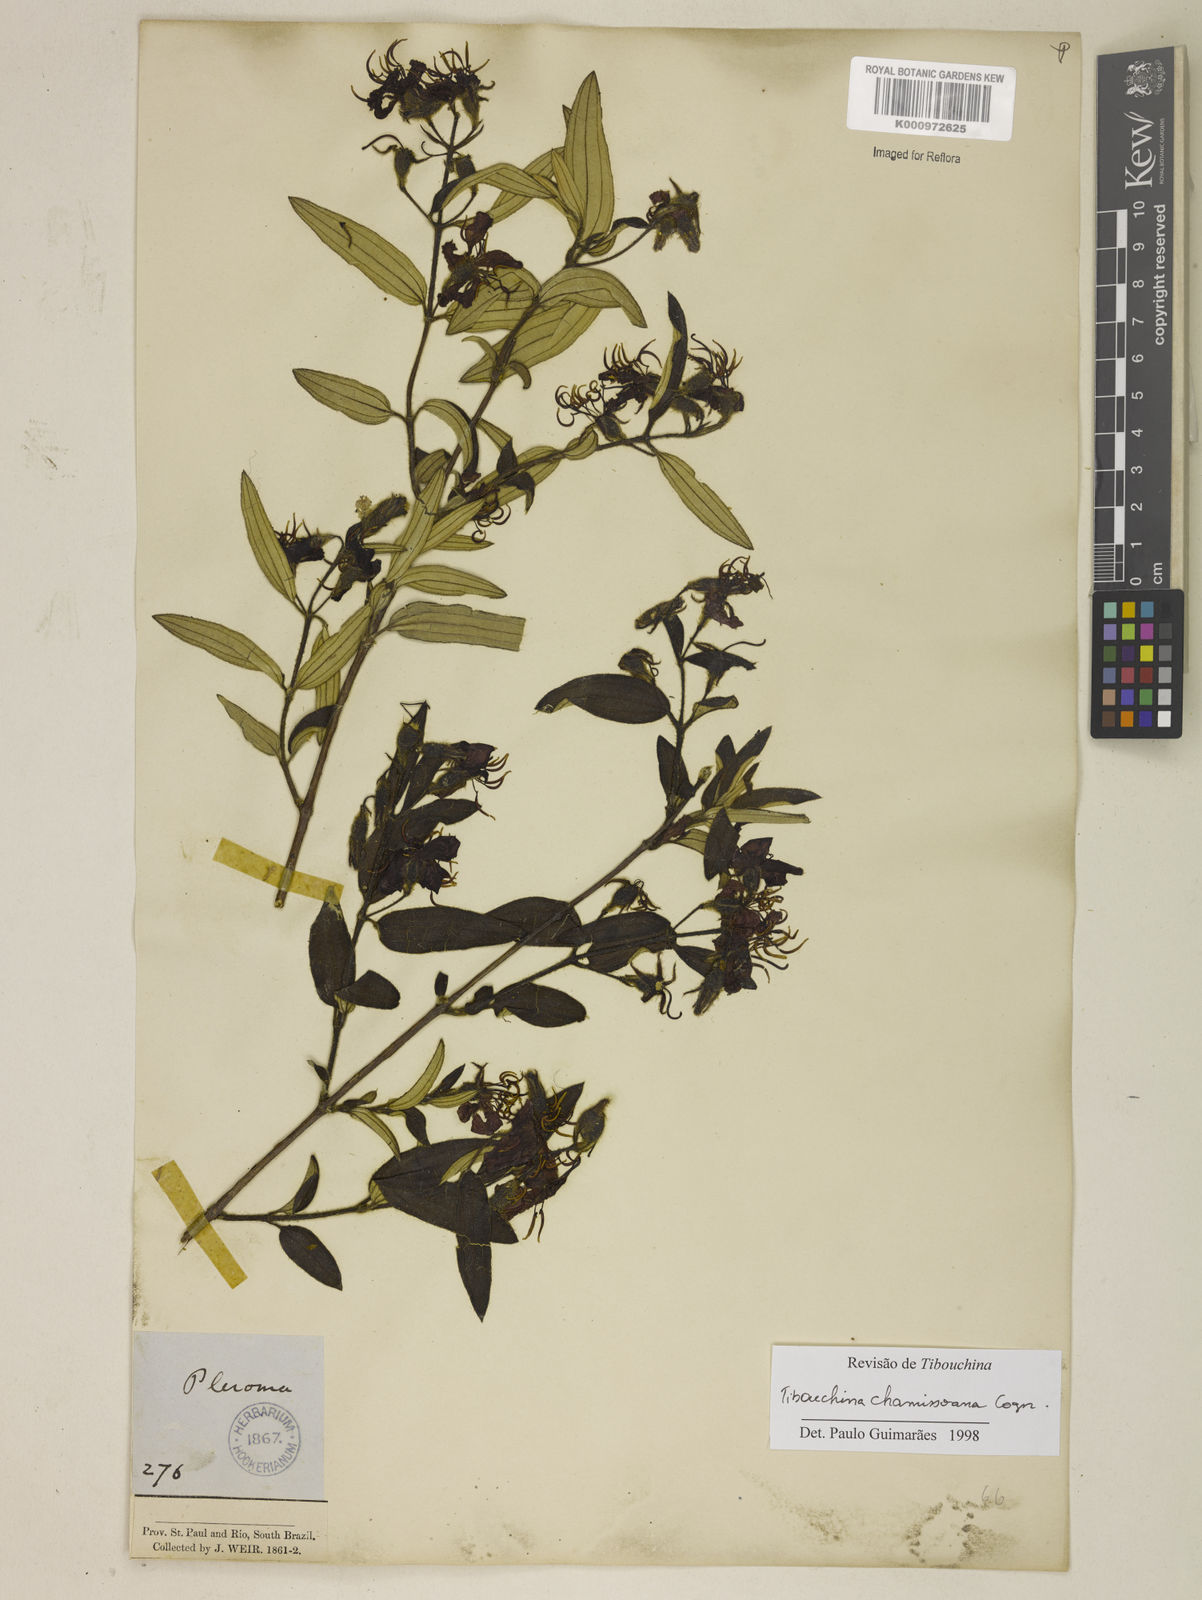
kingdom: Plantae
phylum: Tracheophyta
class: Magnoliopsida
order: Myrtales
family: Melastomataceae
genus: Pleroma
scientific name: Pleroma velutinum
